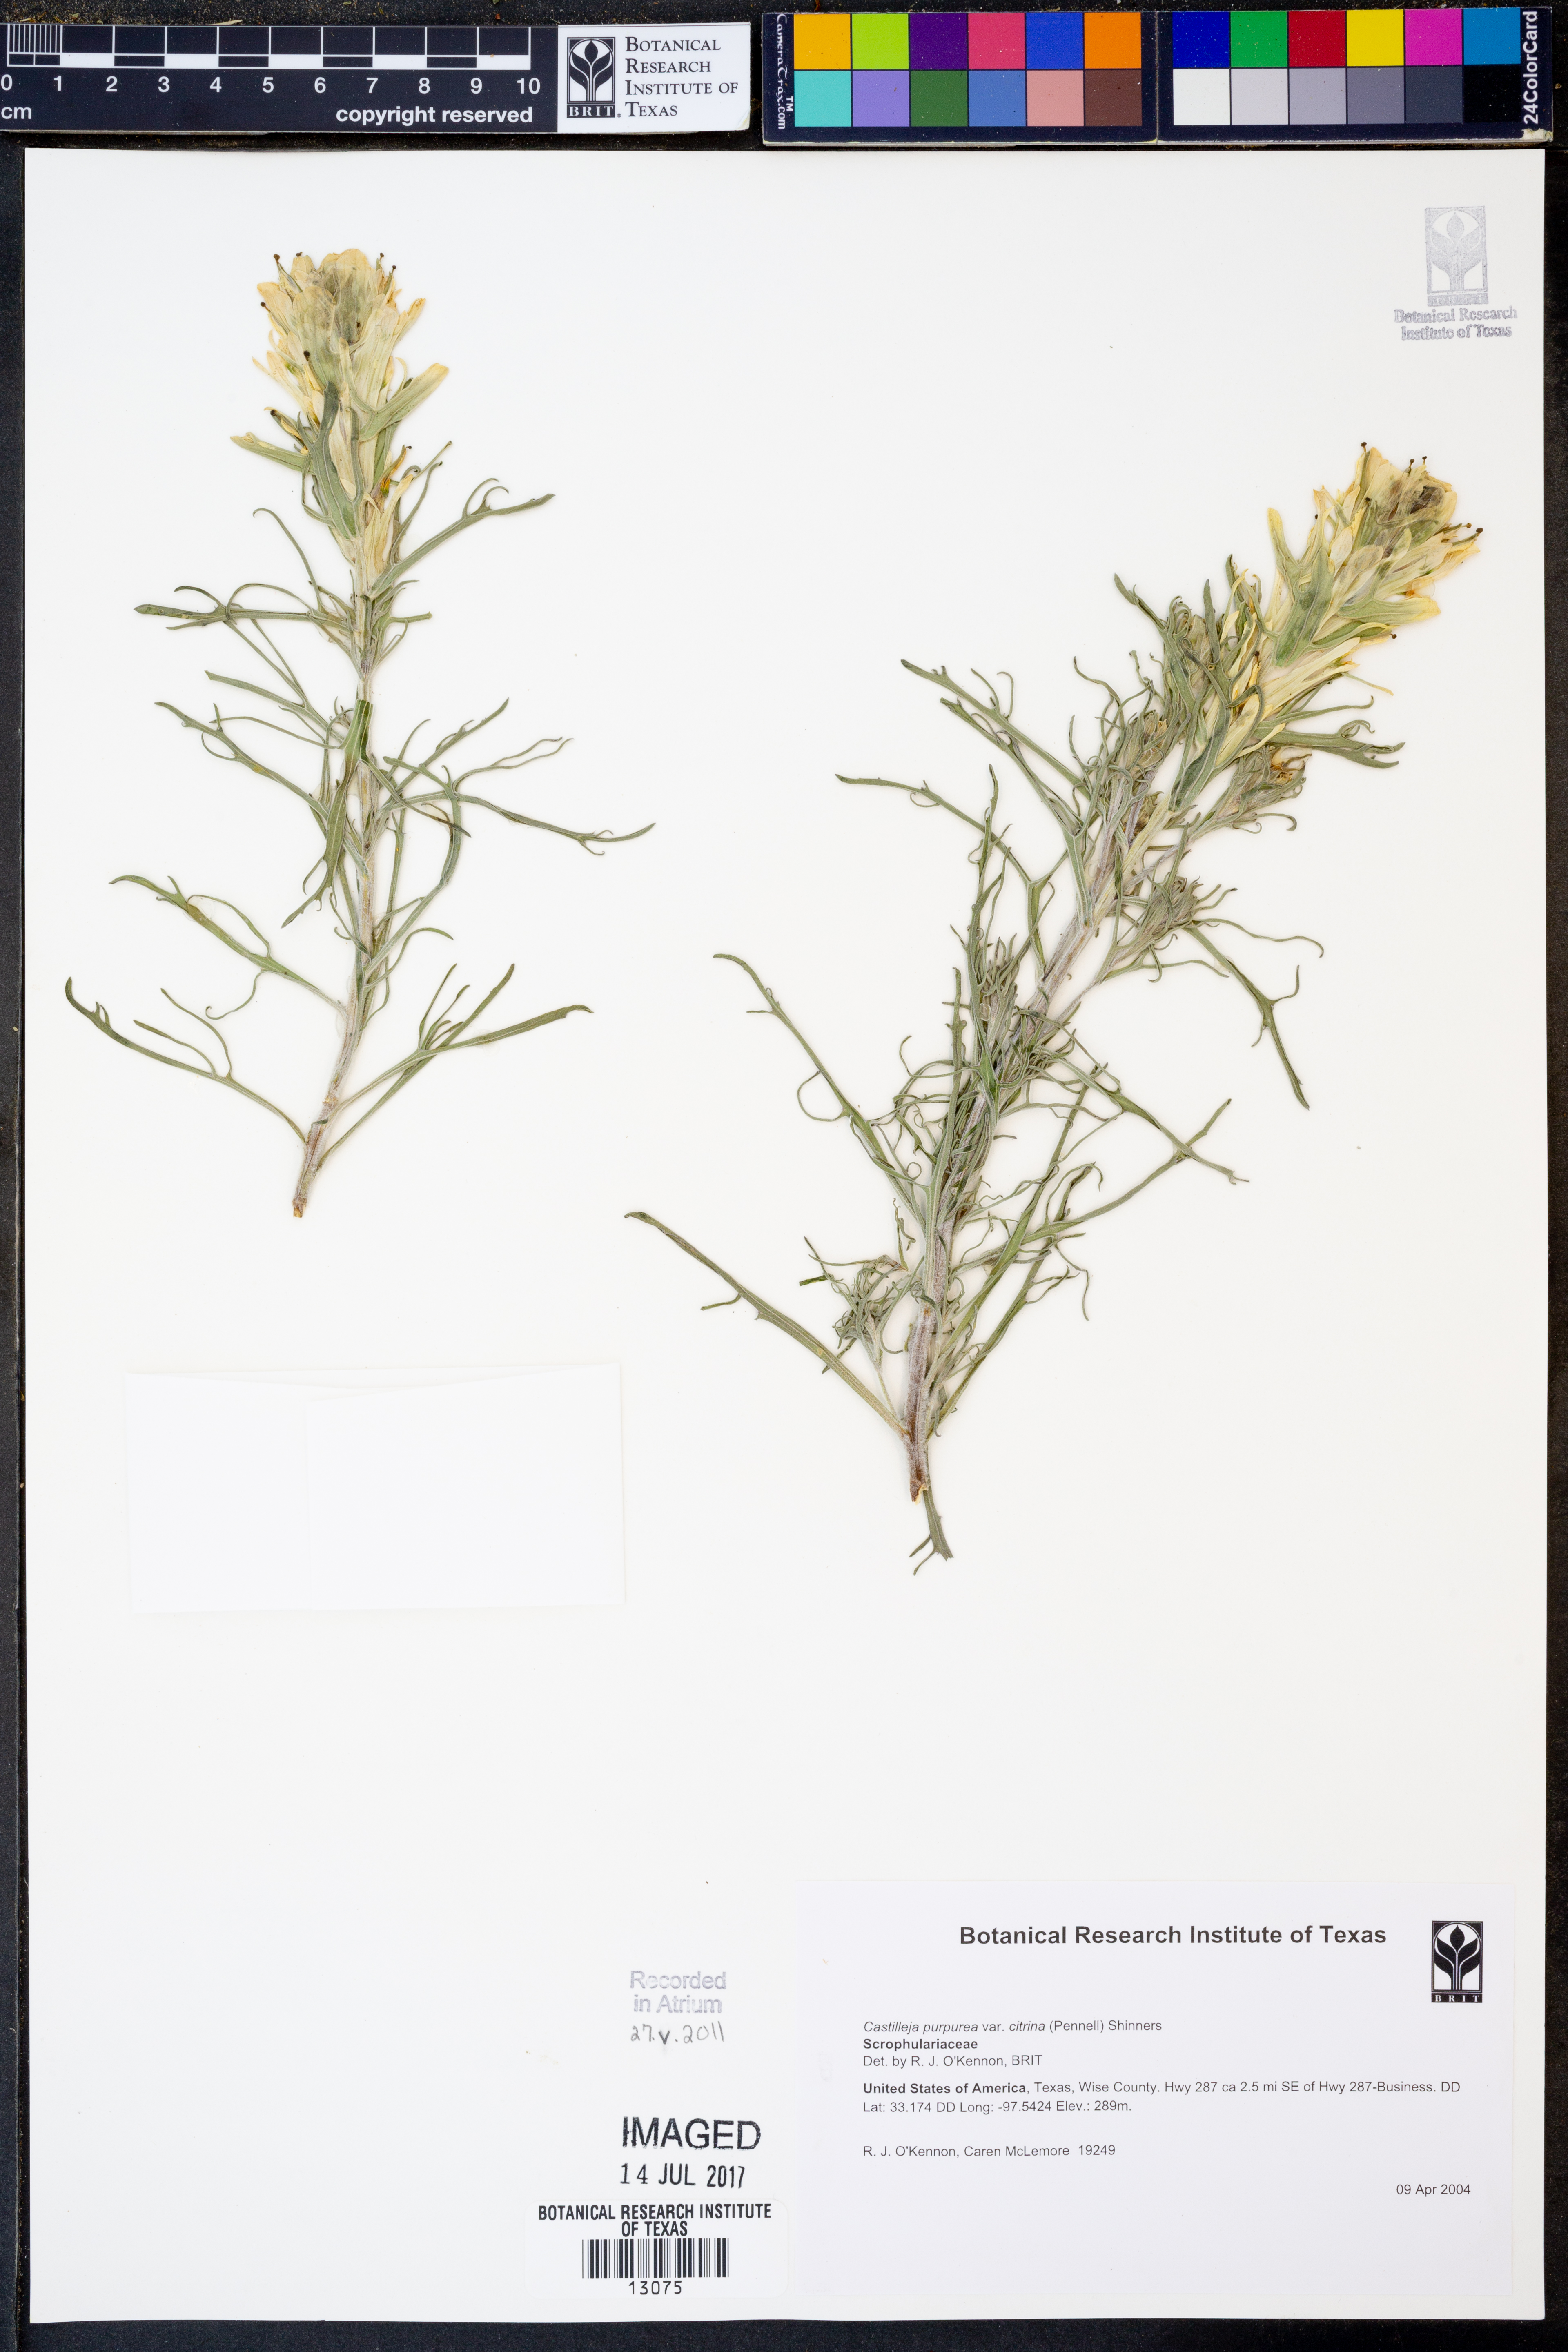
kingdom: Plantae
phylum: Tracheophyta
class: Magnoliopsida
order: Lamiales
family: Orobanchaceae
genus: Castilleja
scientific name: Castilleja citrina
